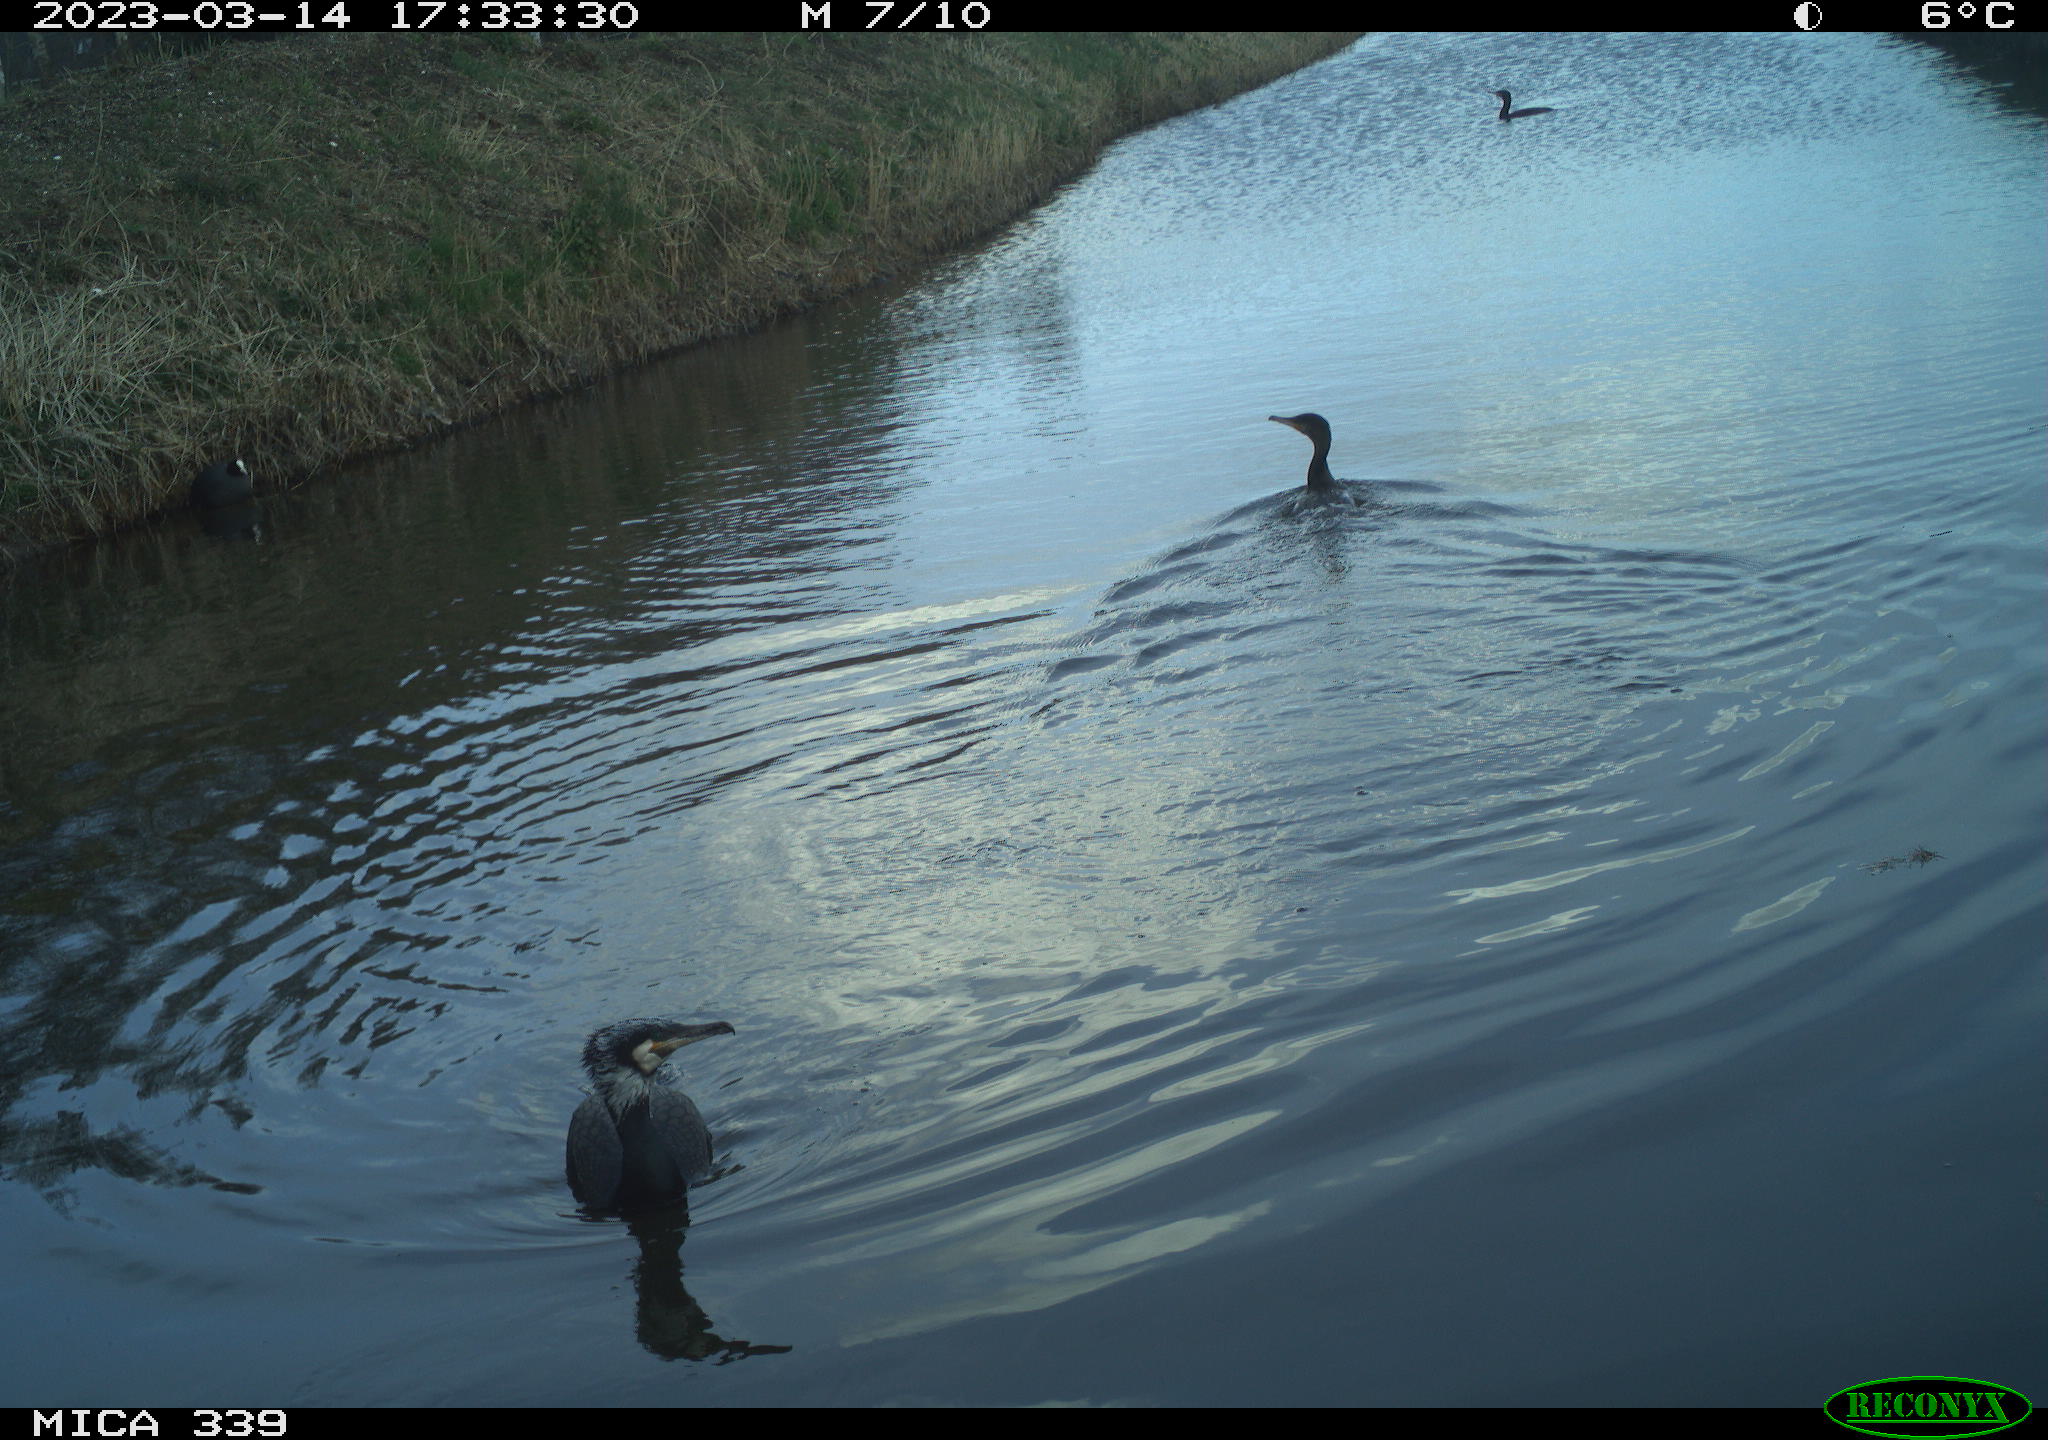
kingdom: Animalia
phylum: Chordata
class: Aves
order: Suliformes
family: Phalacrocoracidae
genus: Phalacrocorax
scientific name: Phalacrocorax carbo
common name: Great cormorant
